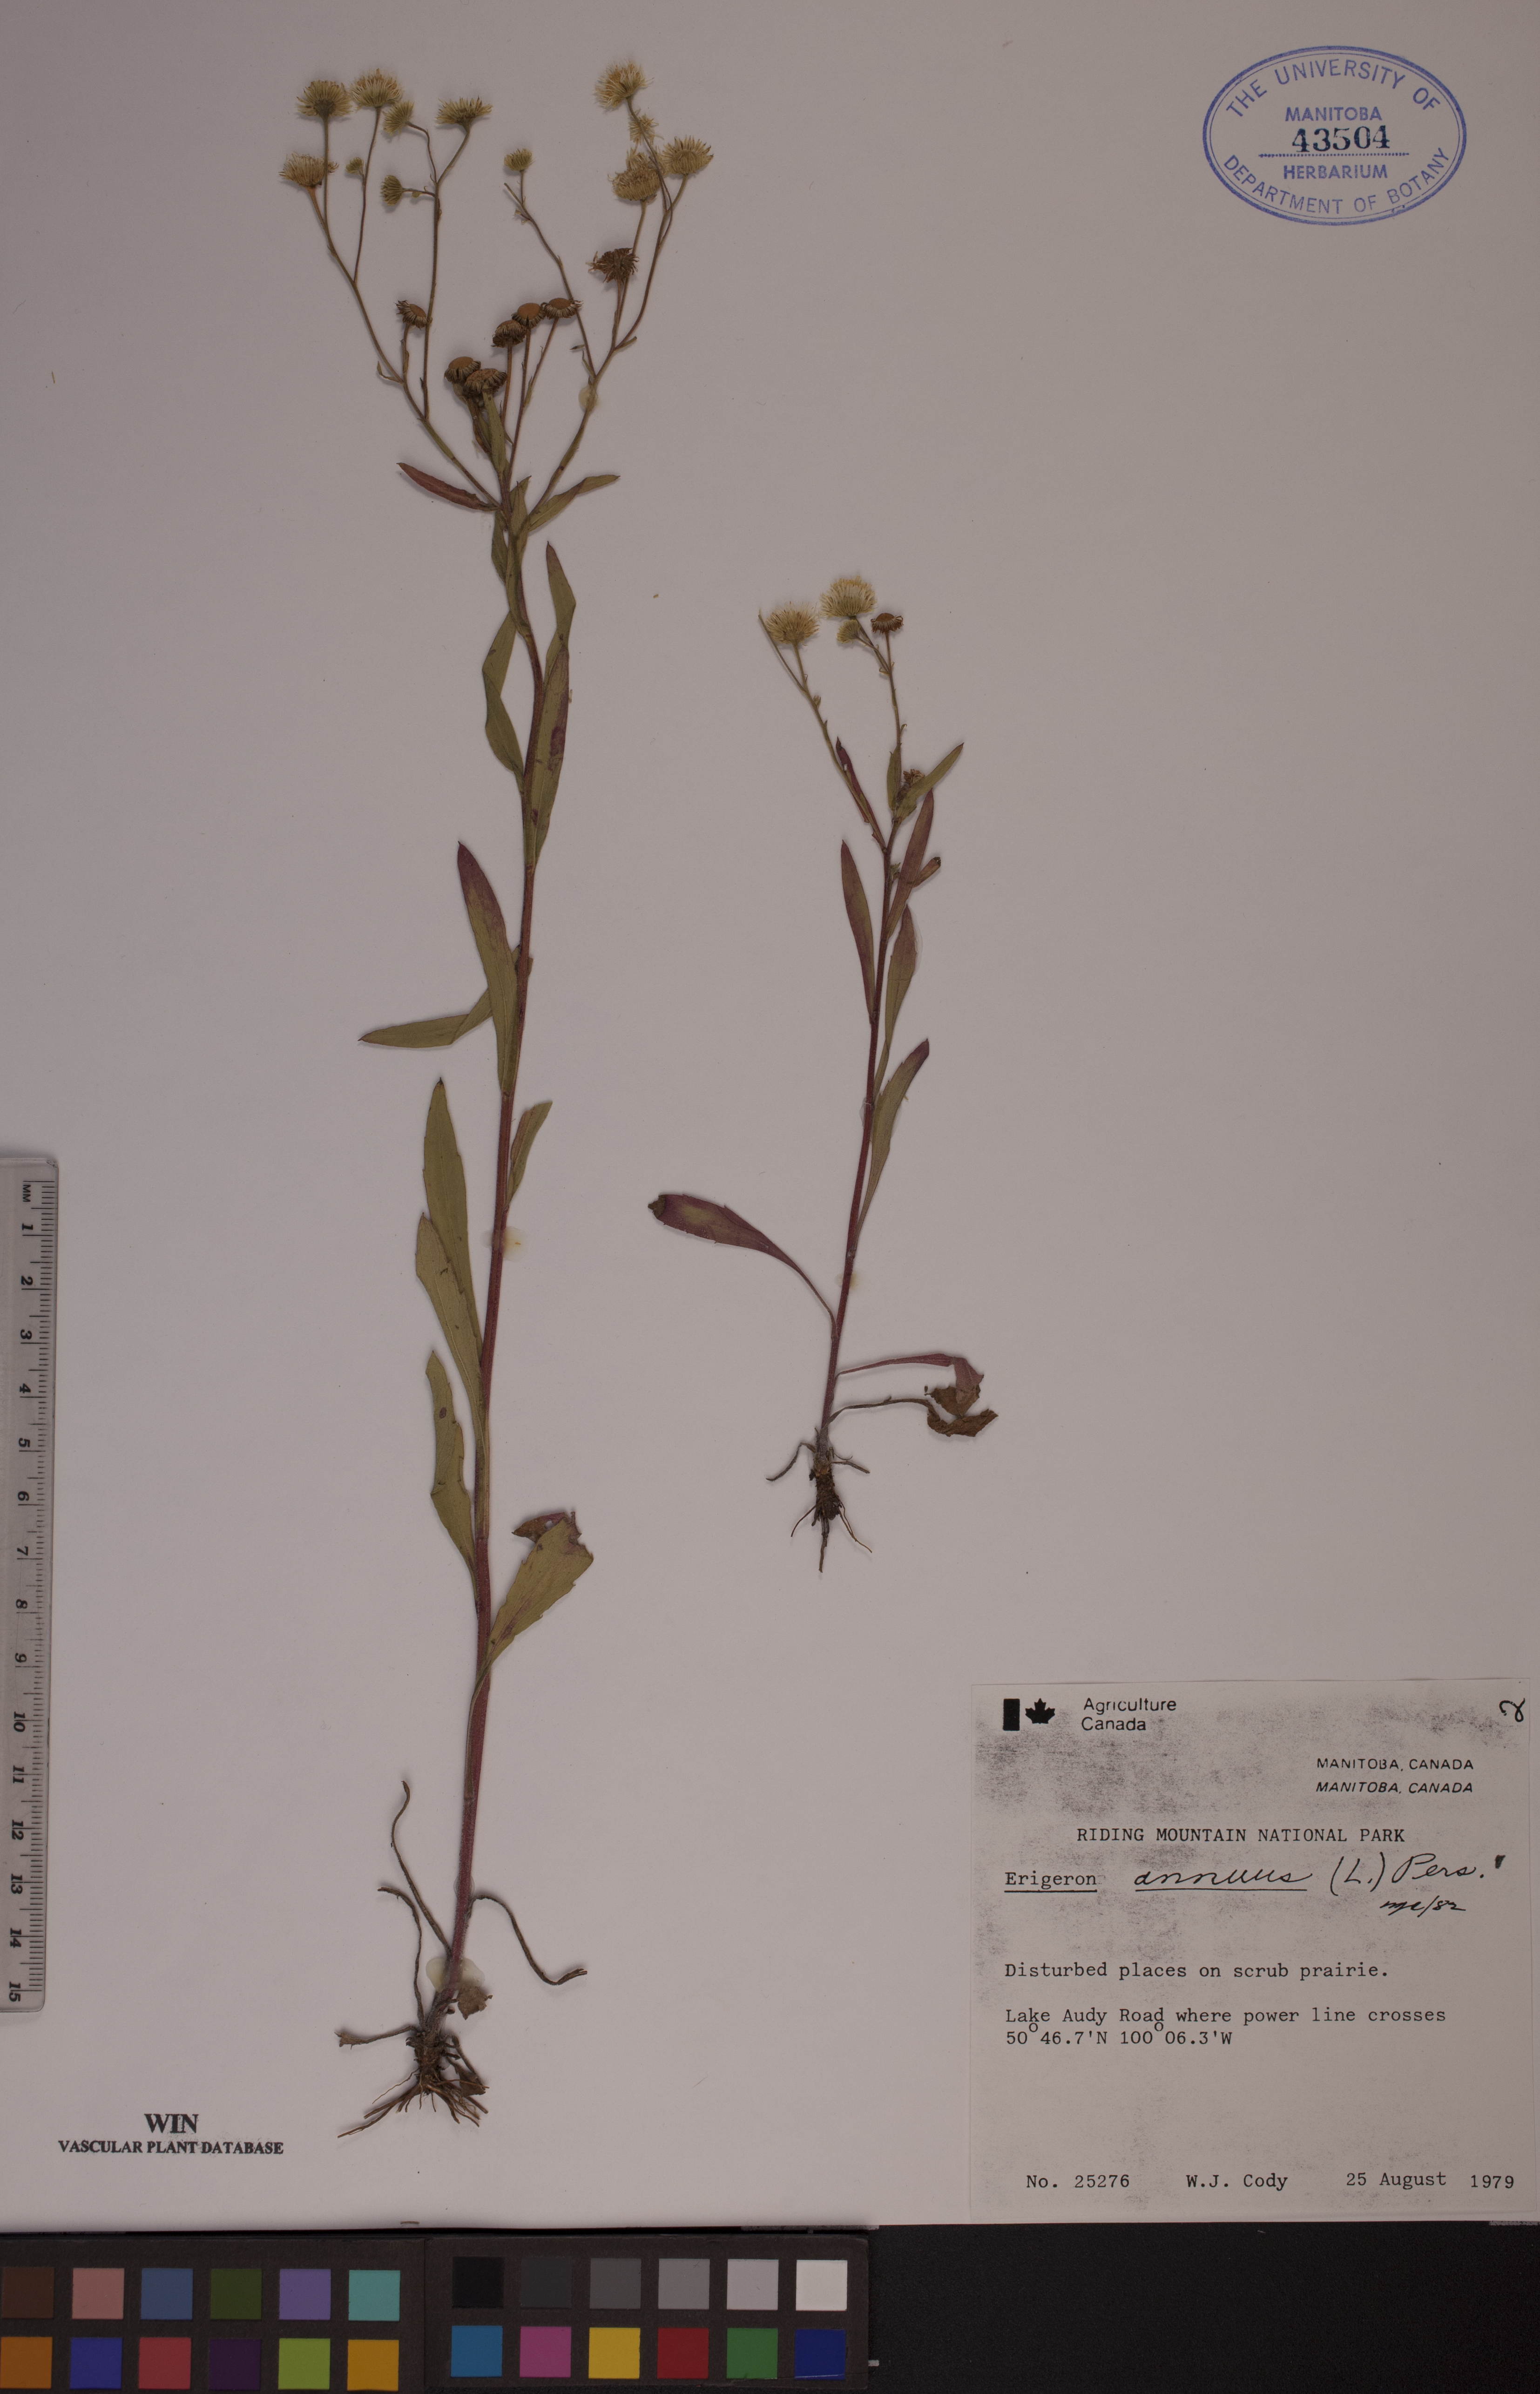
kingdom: Plantae
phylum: Tracheophyta
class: Magnoliopsida
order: Asterales
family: Asteraceae
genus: Erigeron
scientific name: Erigeron annuus
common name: Tall fleabane
